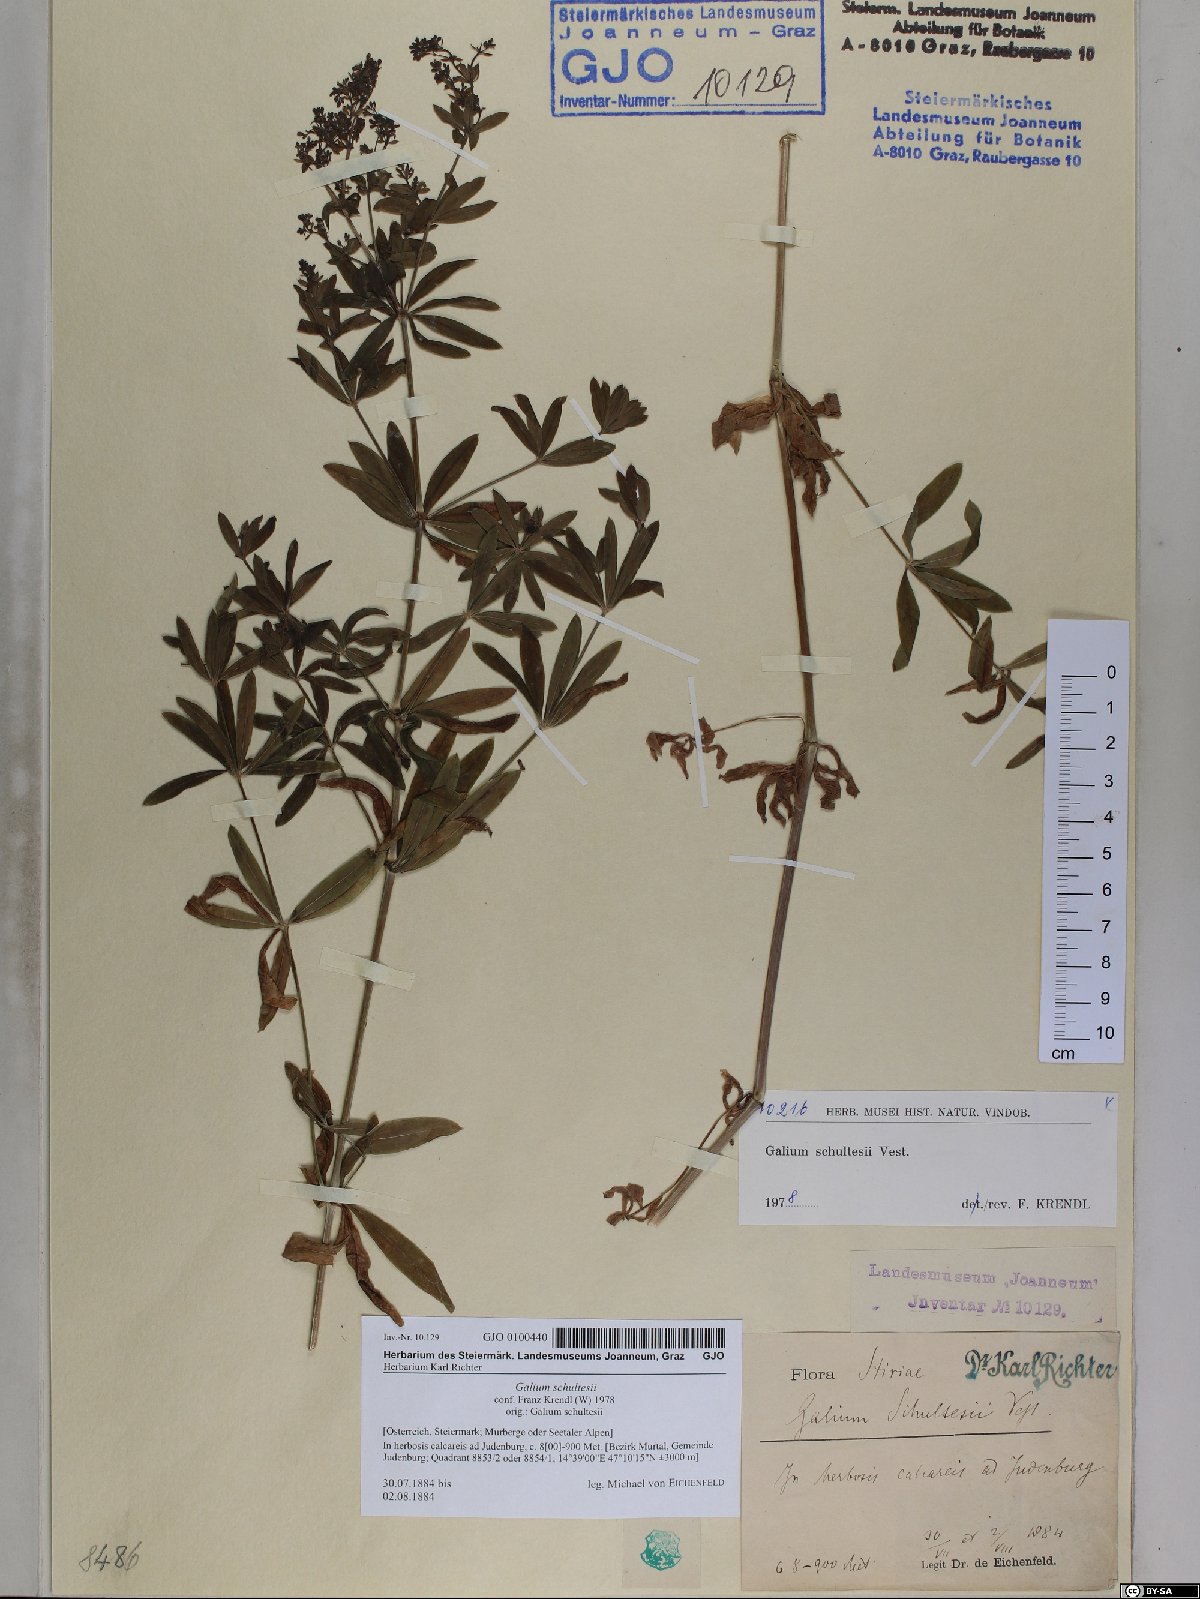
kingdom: Plantae
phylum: Tracheophyta
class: Magnoliopsida
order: Gentianales
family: Rubiaceae
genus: Galium
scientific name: Galium intermedium
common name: Bedstraw
